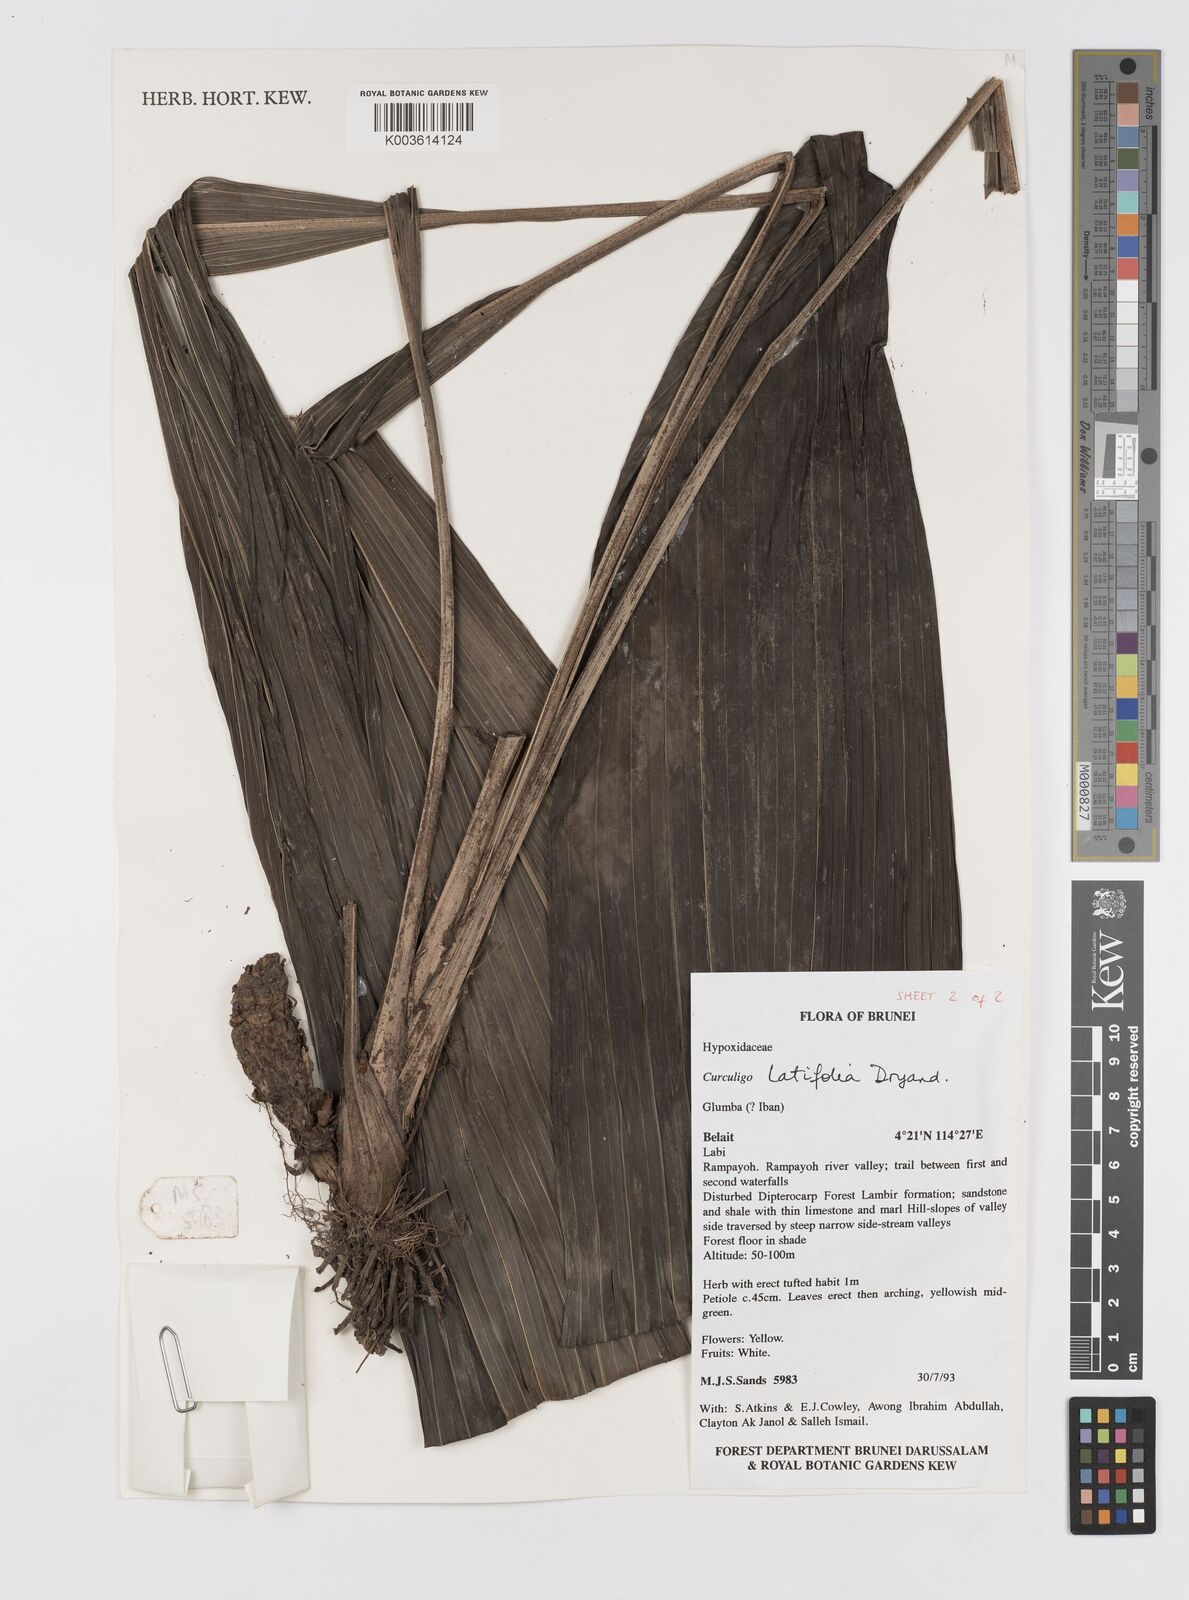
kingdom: Plantae
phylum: Tracheophyta
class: Liliopsida
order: Asparagales
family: Hypoxidaceae
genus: Curculigo
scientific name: Curculigo latifolia
